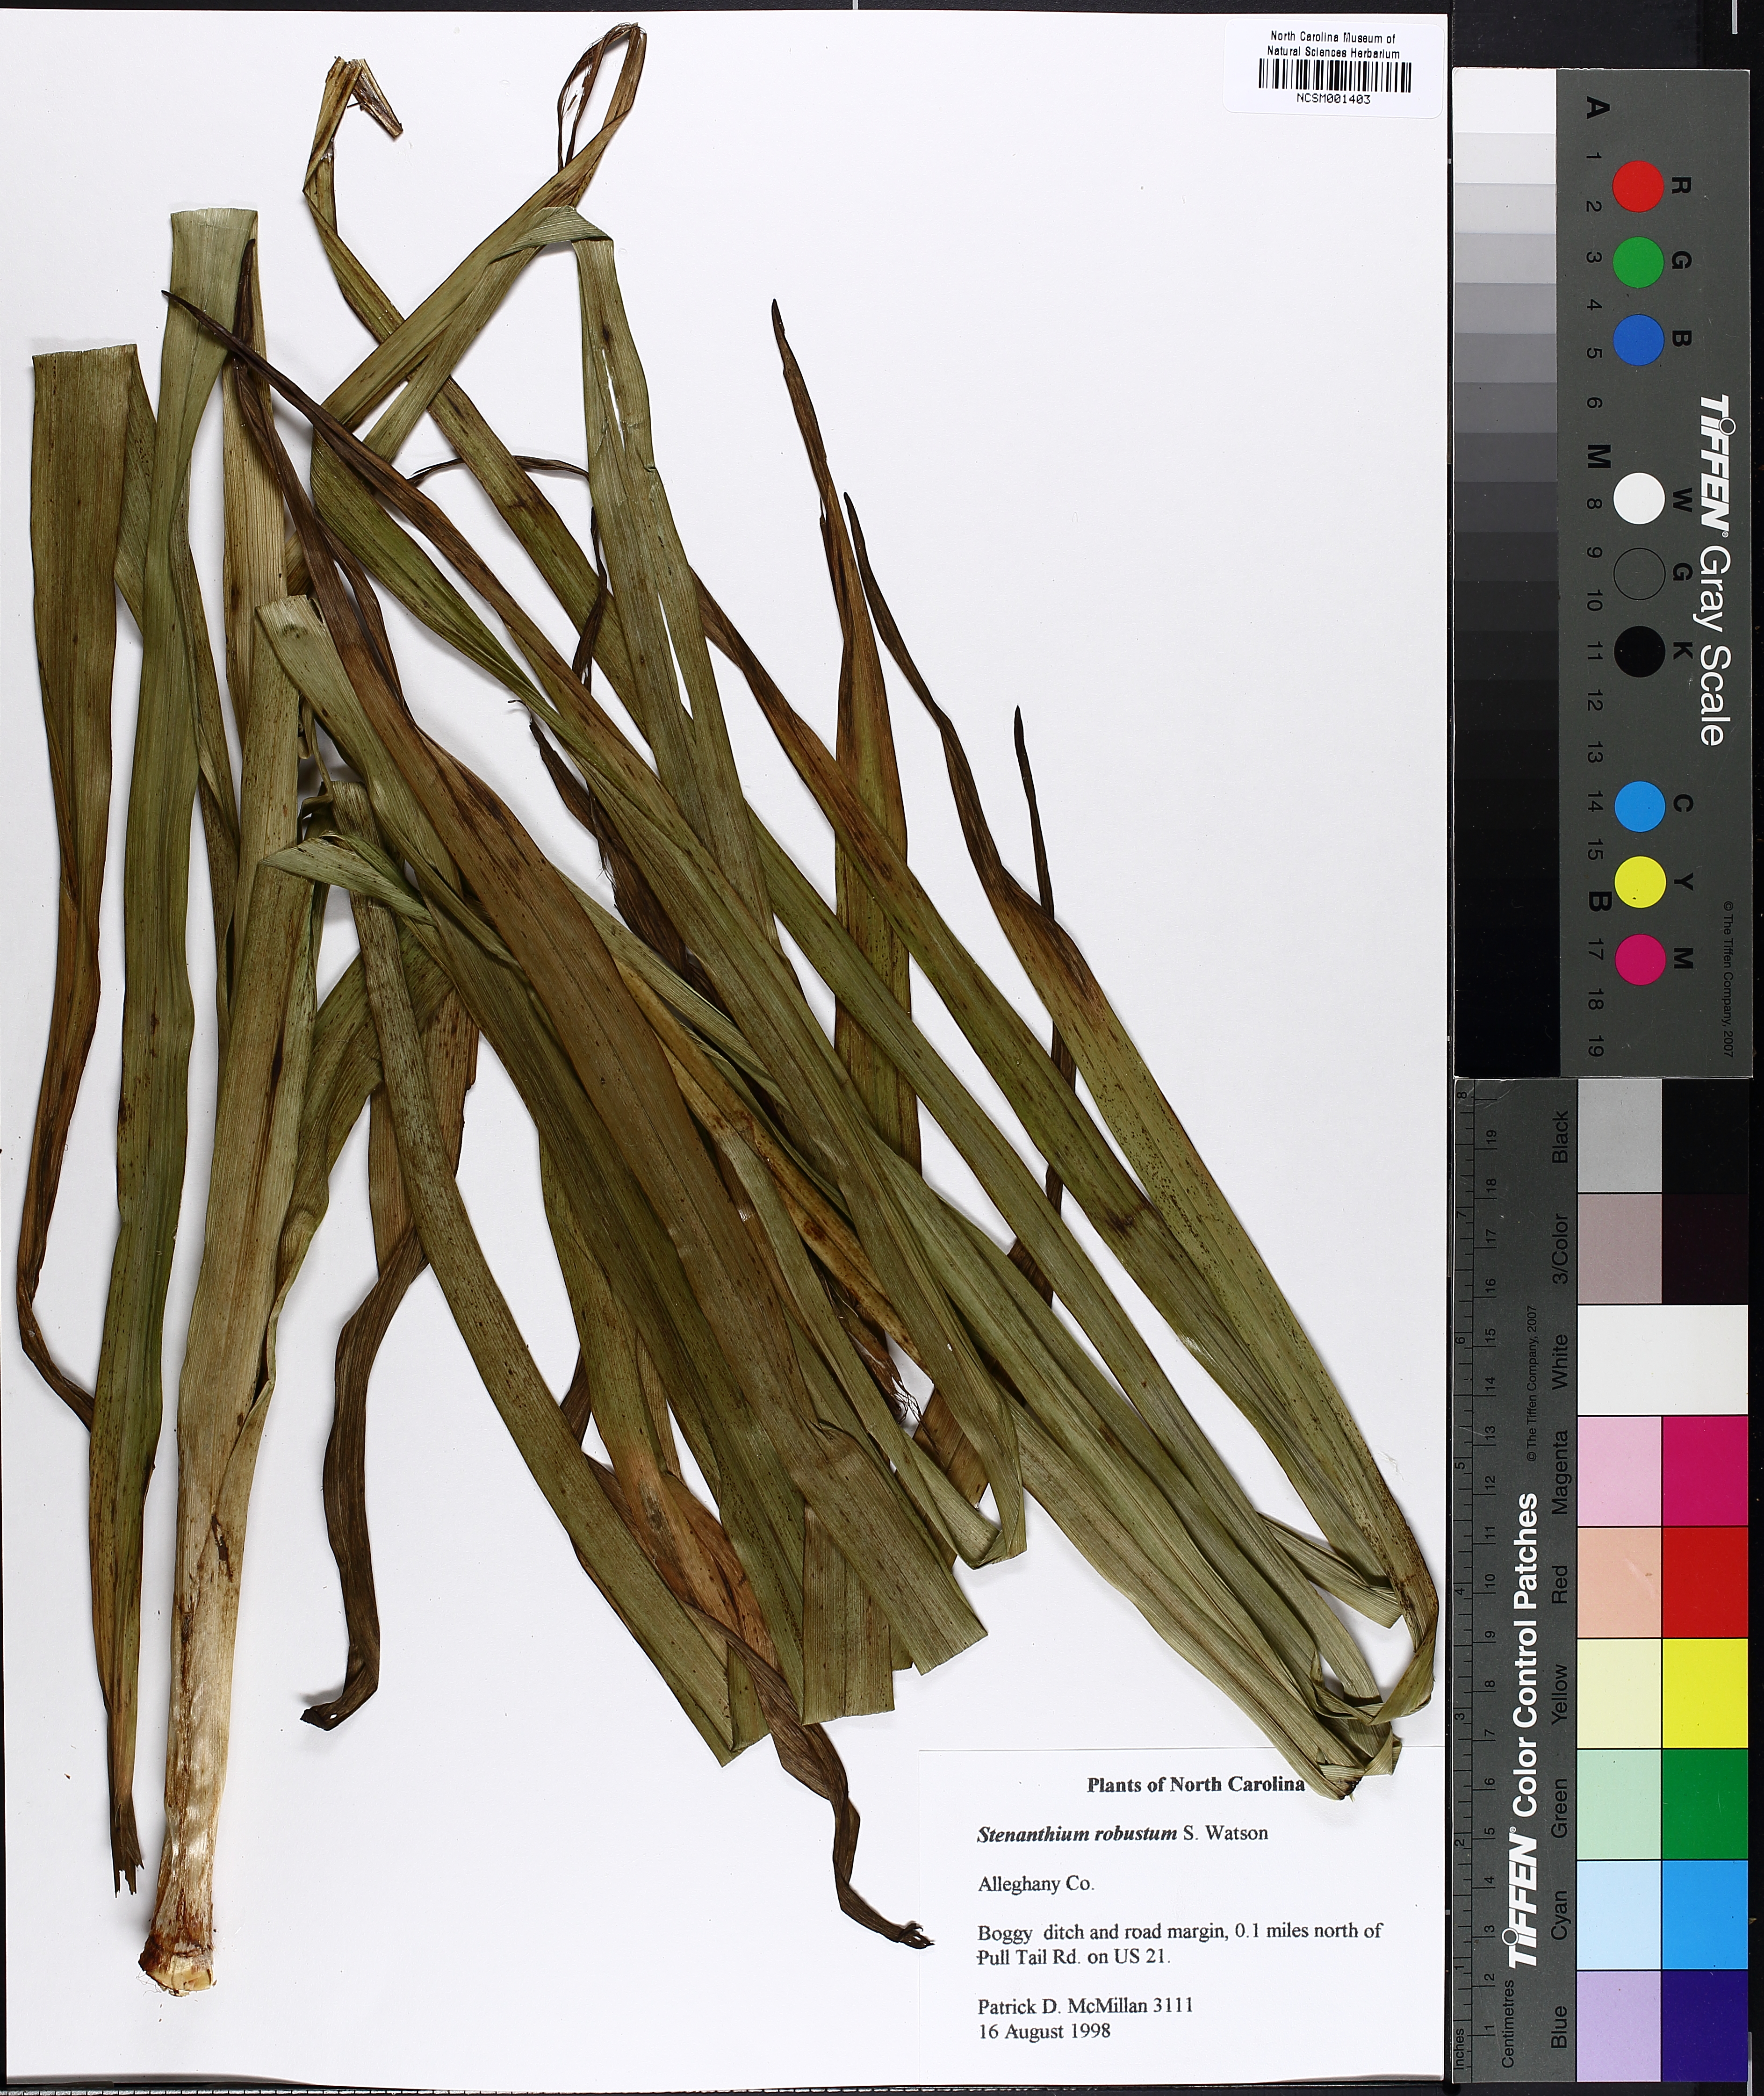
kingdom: Plantae
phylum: Tracheophyta
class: Liliopsida
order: Liliales
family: Melanthiaceae
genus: Stenanthium
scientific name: Stenanthium gramineum
